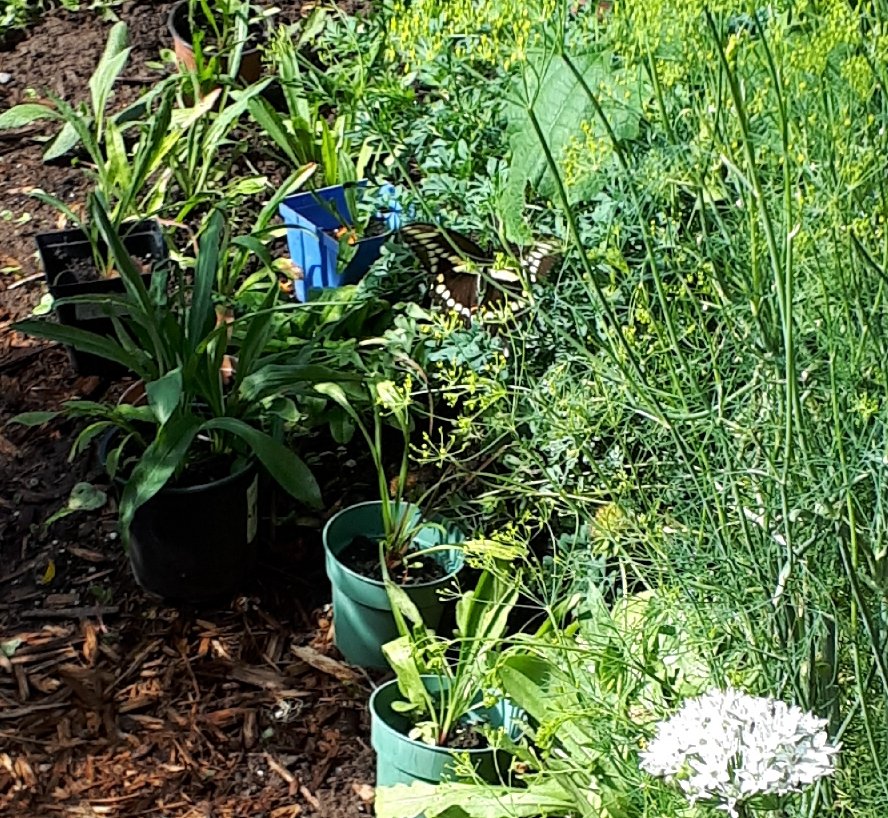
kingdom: Animalia
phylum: Arthropoda
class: Insecta
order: Lepidoptera
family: Papilionidae
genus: Papilio
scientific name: Papilio cresphontes
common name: Eastern Giant Swallowtail
